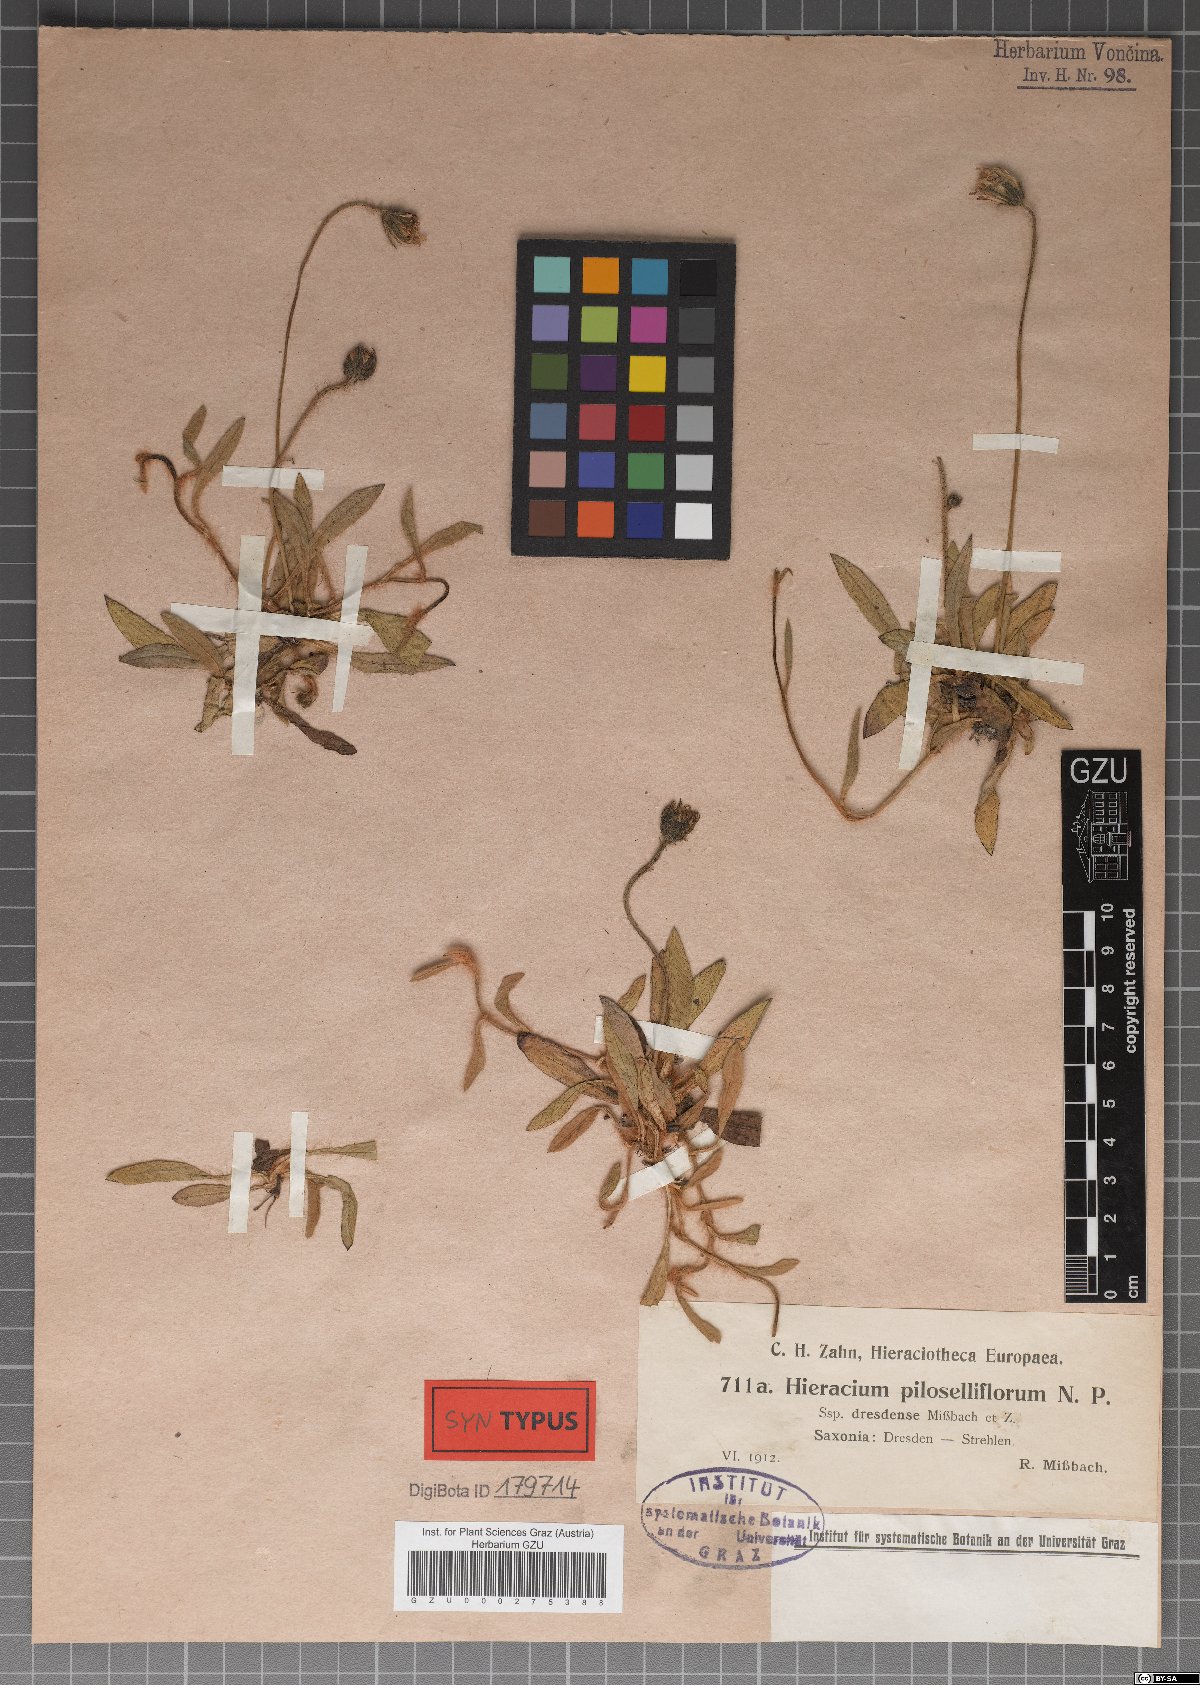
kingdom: Plantae
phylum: Tracheophyta
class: Magnoliopsida
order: Asterales
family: Asteraceae
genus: Pilosella
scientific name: Pilosella macrostolona
